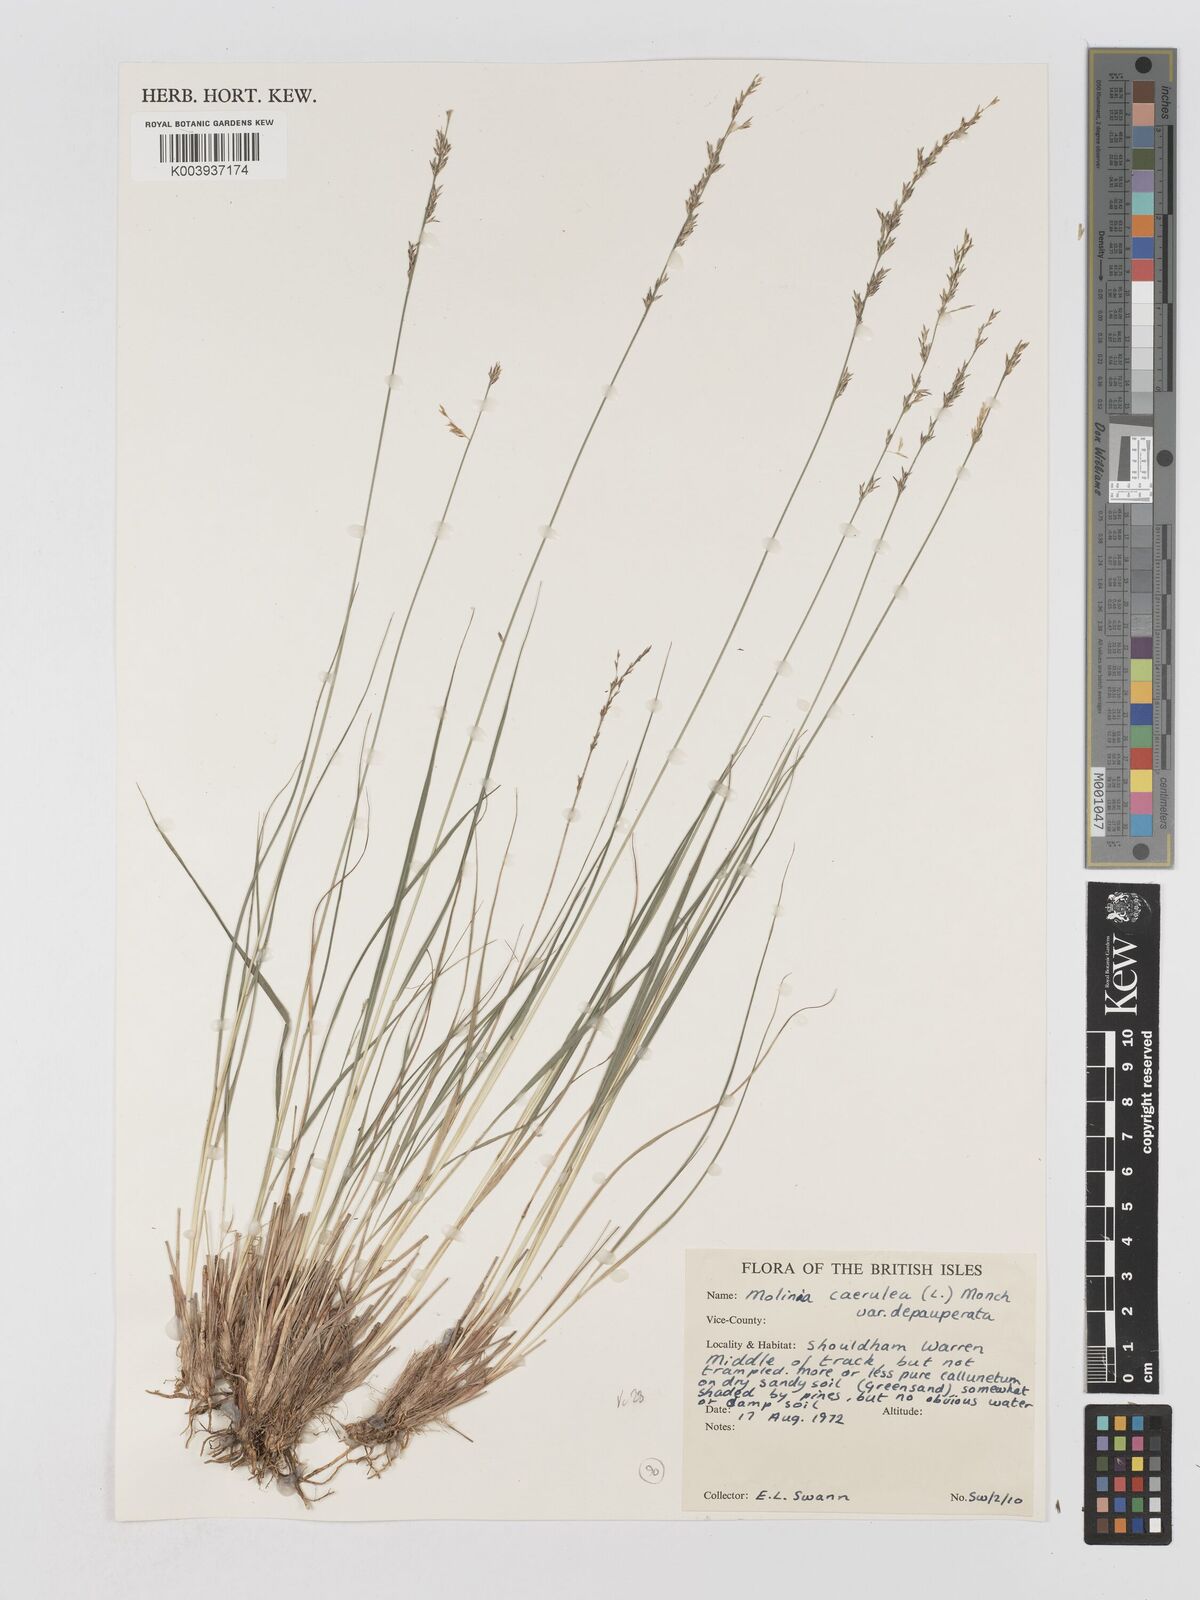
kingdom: Plantae
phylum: Tracheophyta
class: Liliopsida
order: Poales
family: Poaceae
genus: Molinia
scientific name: Molinia caerulea
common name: Purple moor-grass
